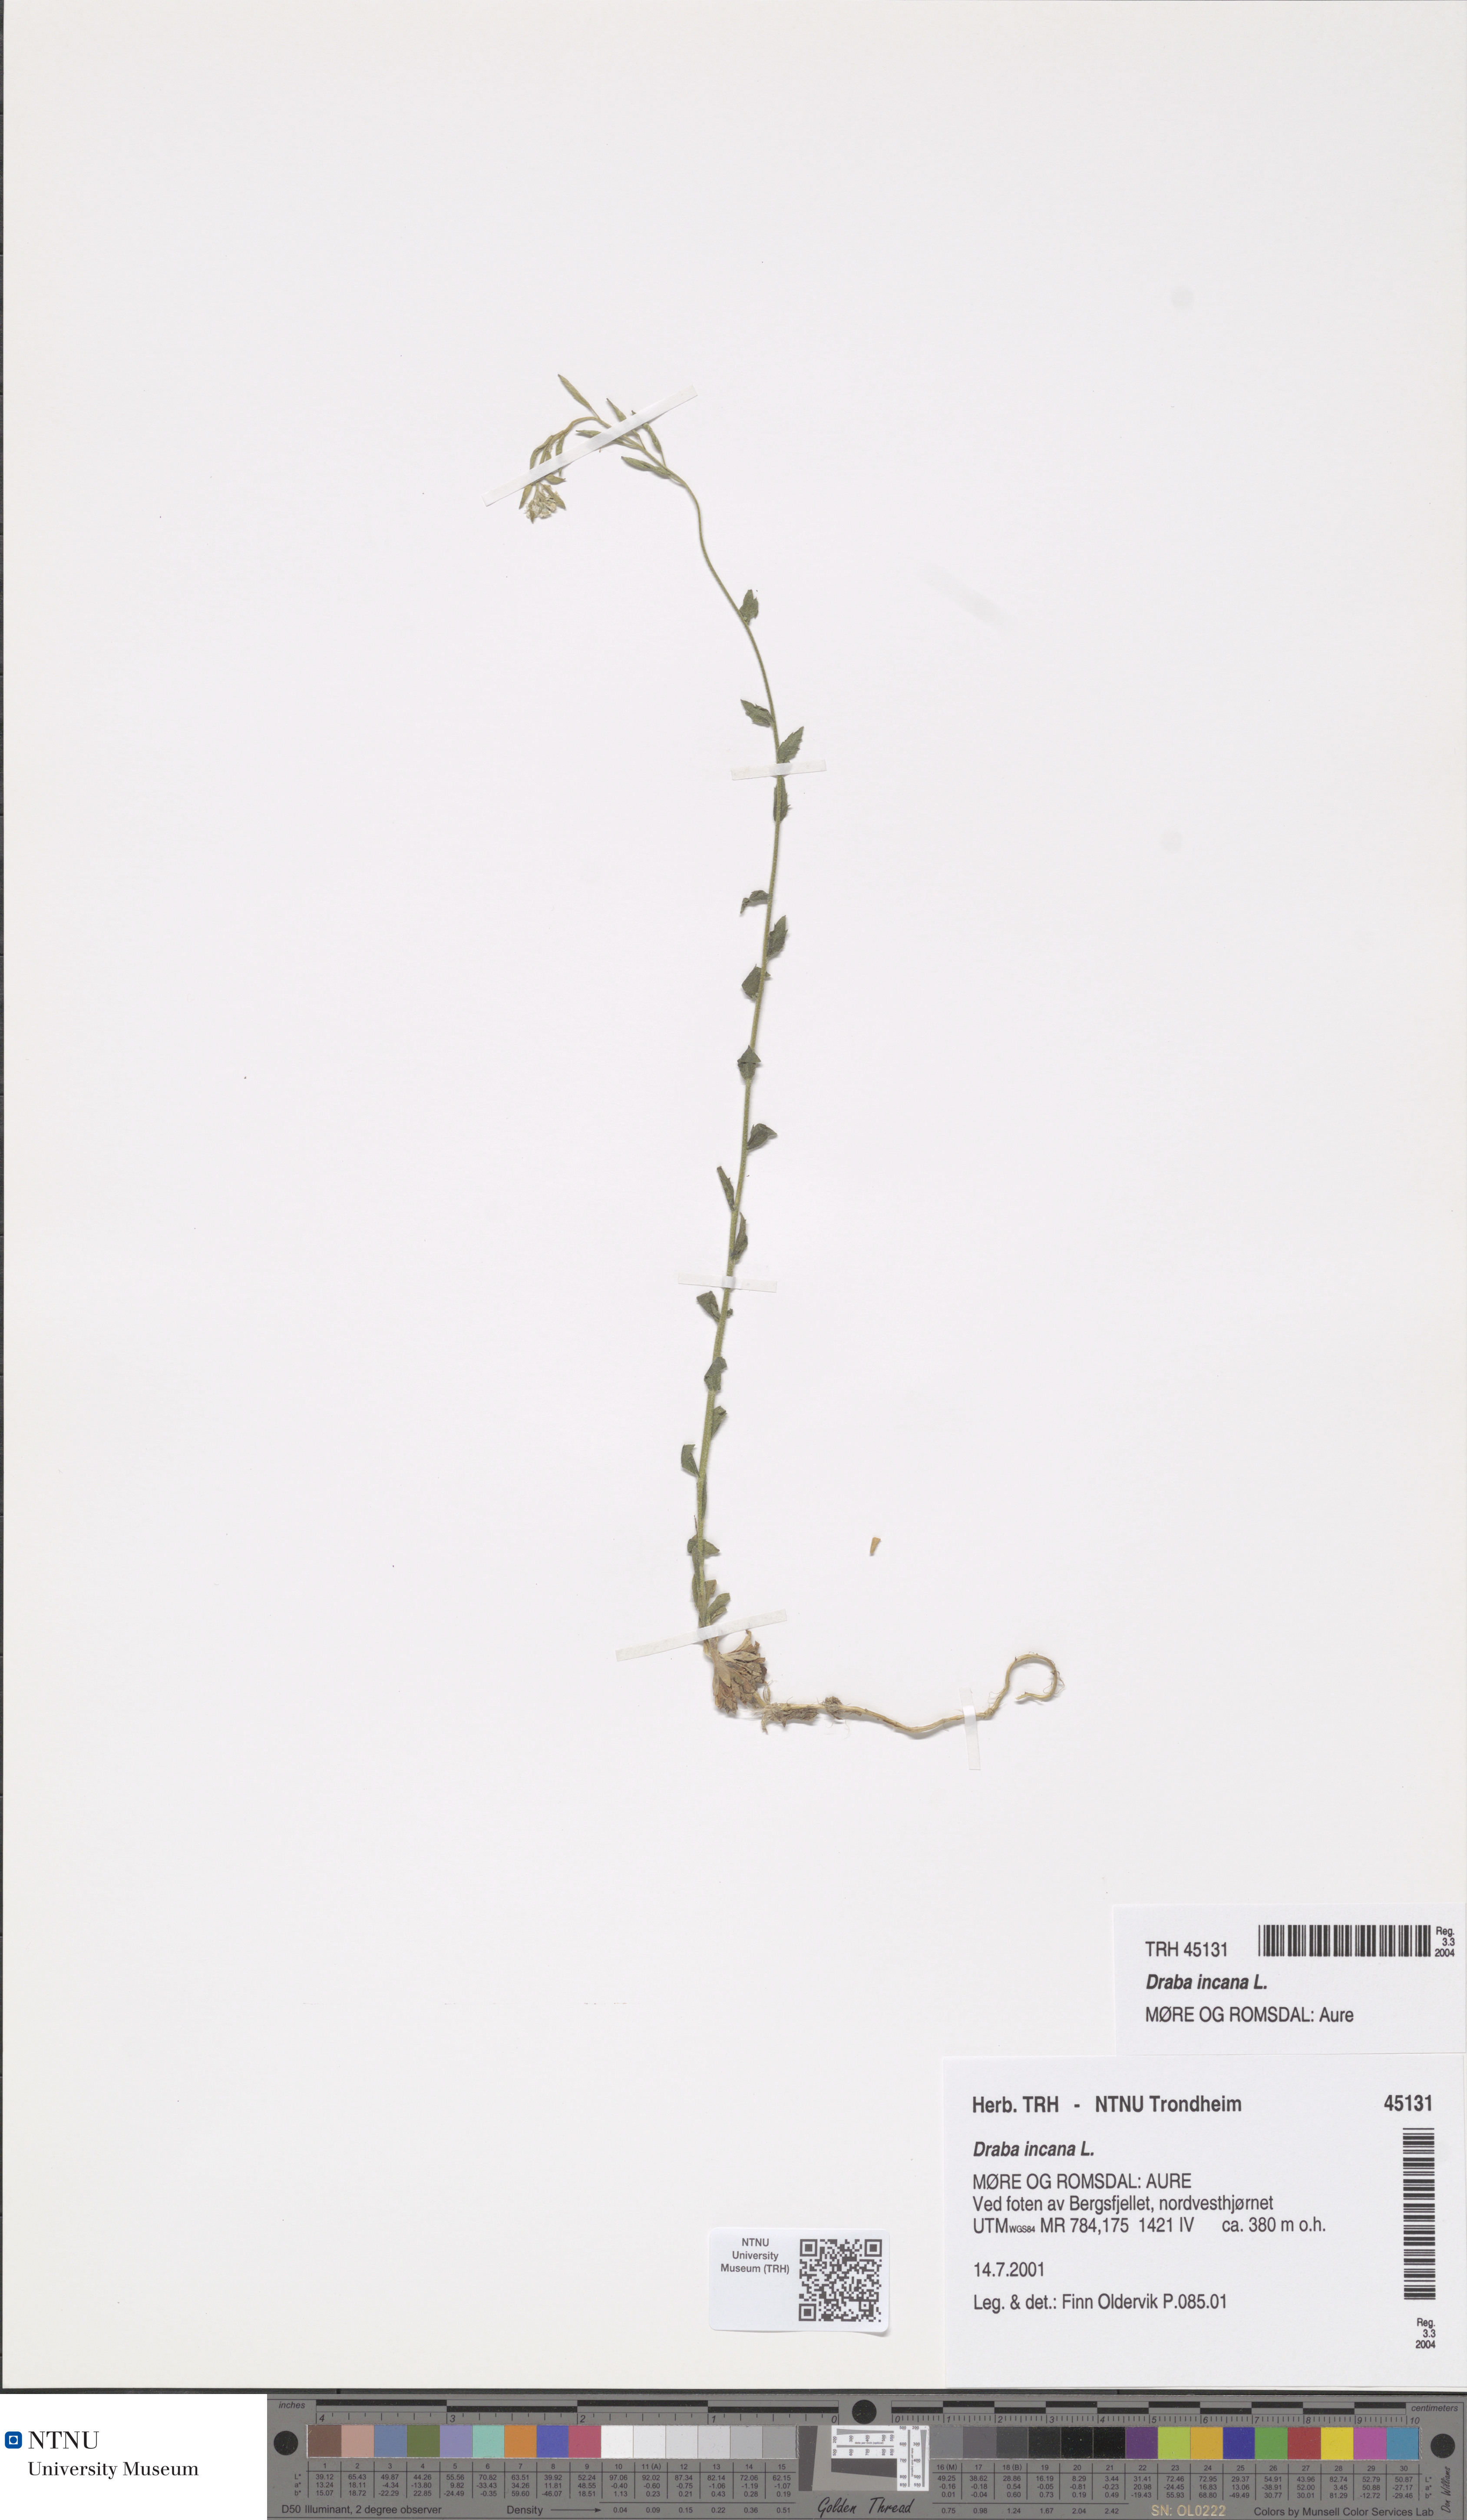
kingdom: Plantae
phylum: Tracheophyta
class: Magnoliopsida
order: Brassicales
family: Brassicaceae
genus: Draba
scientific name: Draba incana
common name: Hoary whitlow-grass
